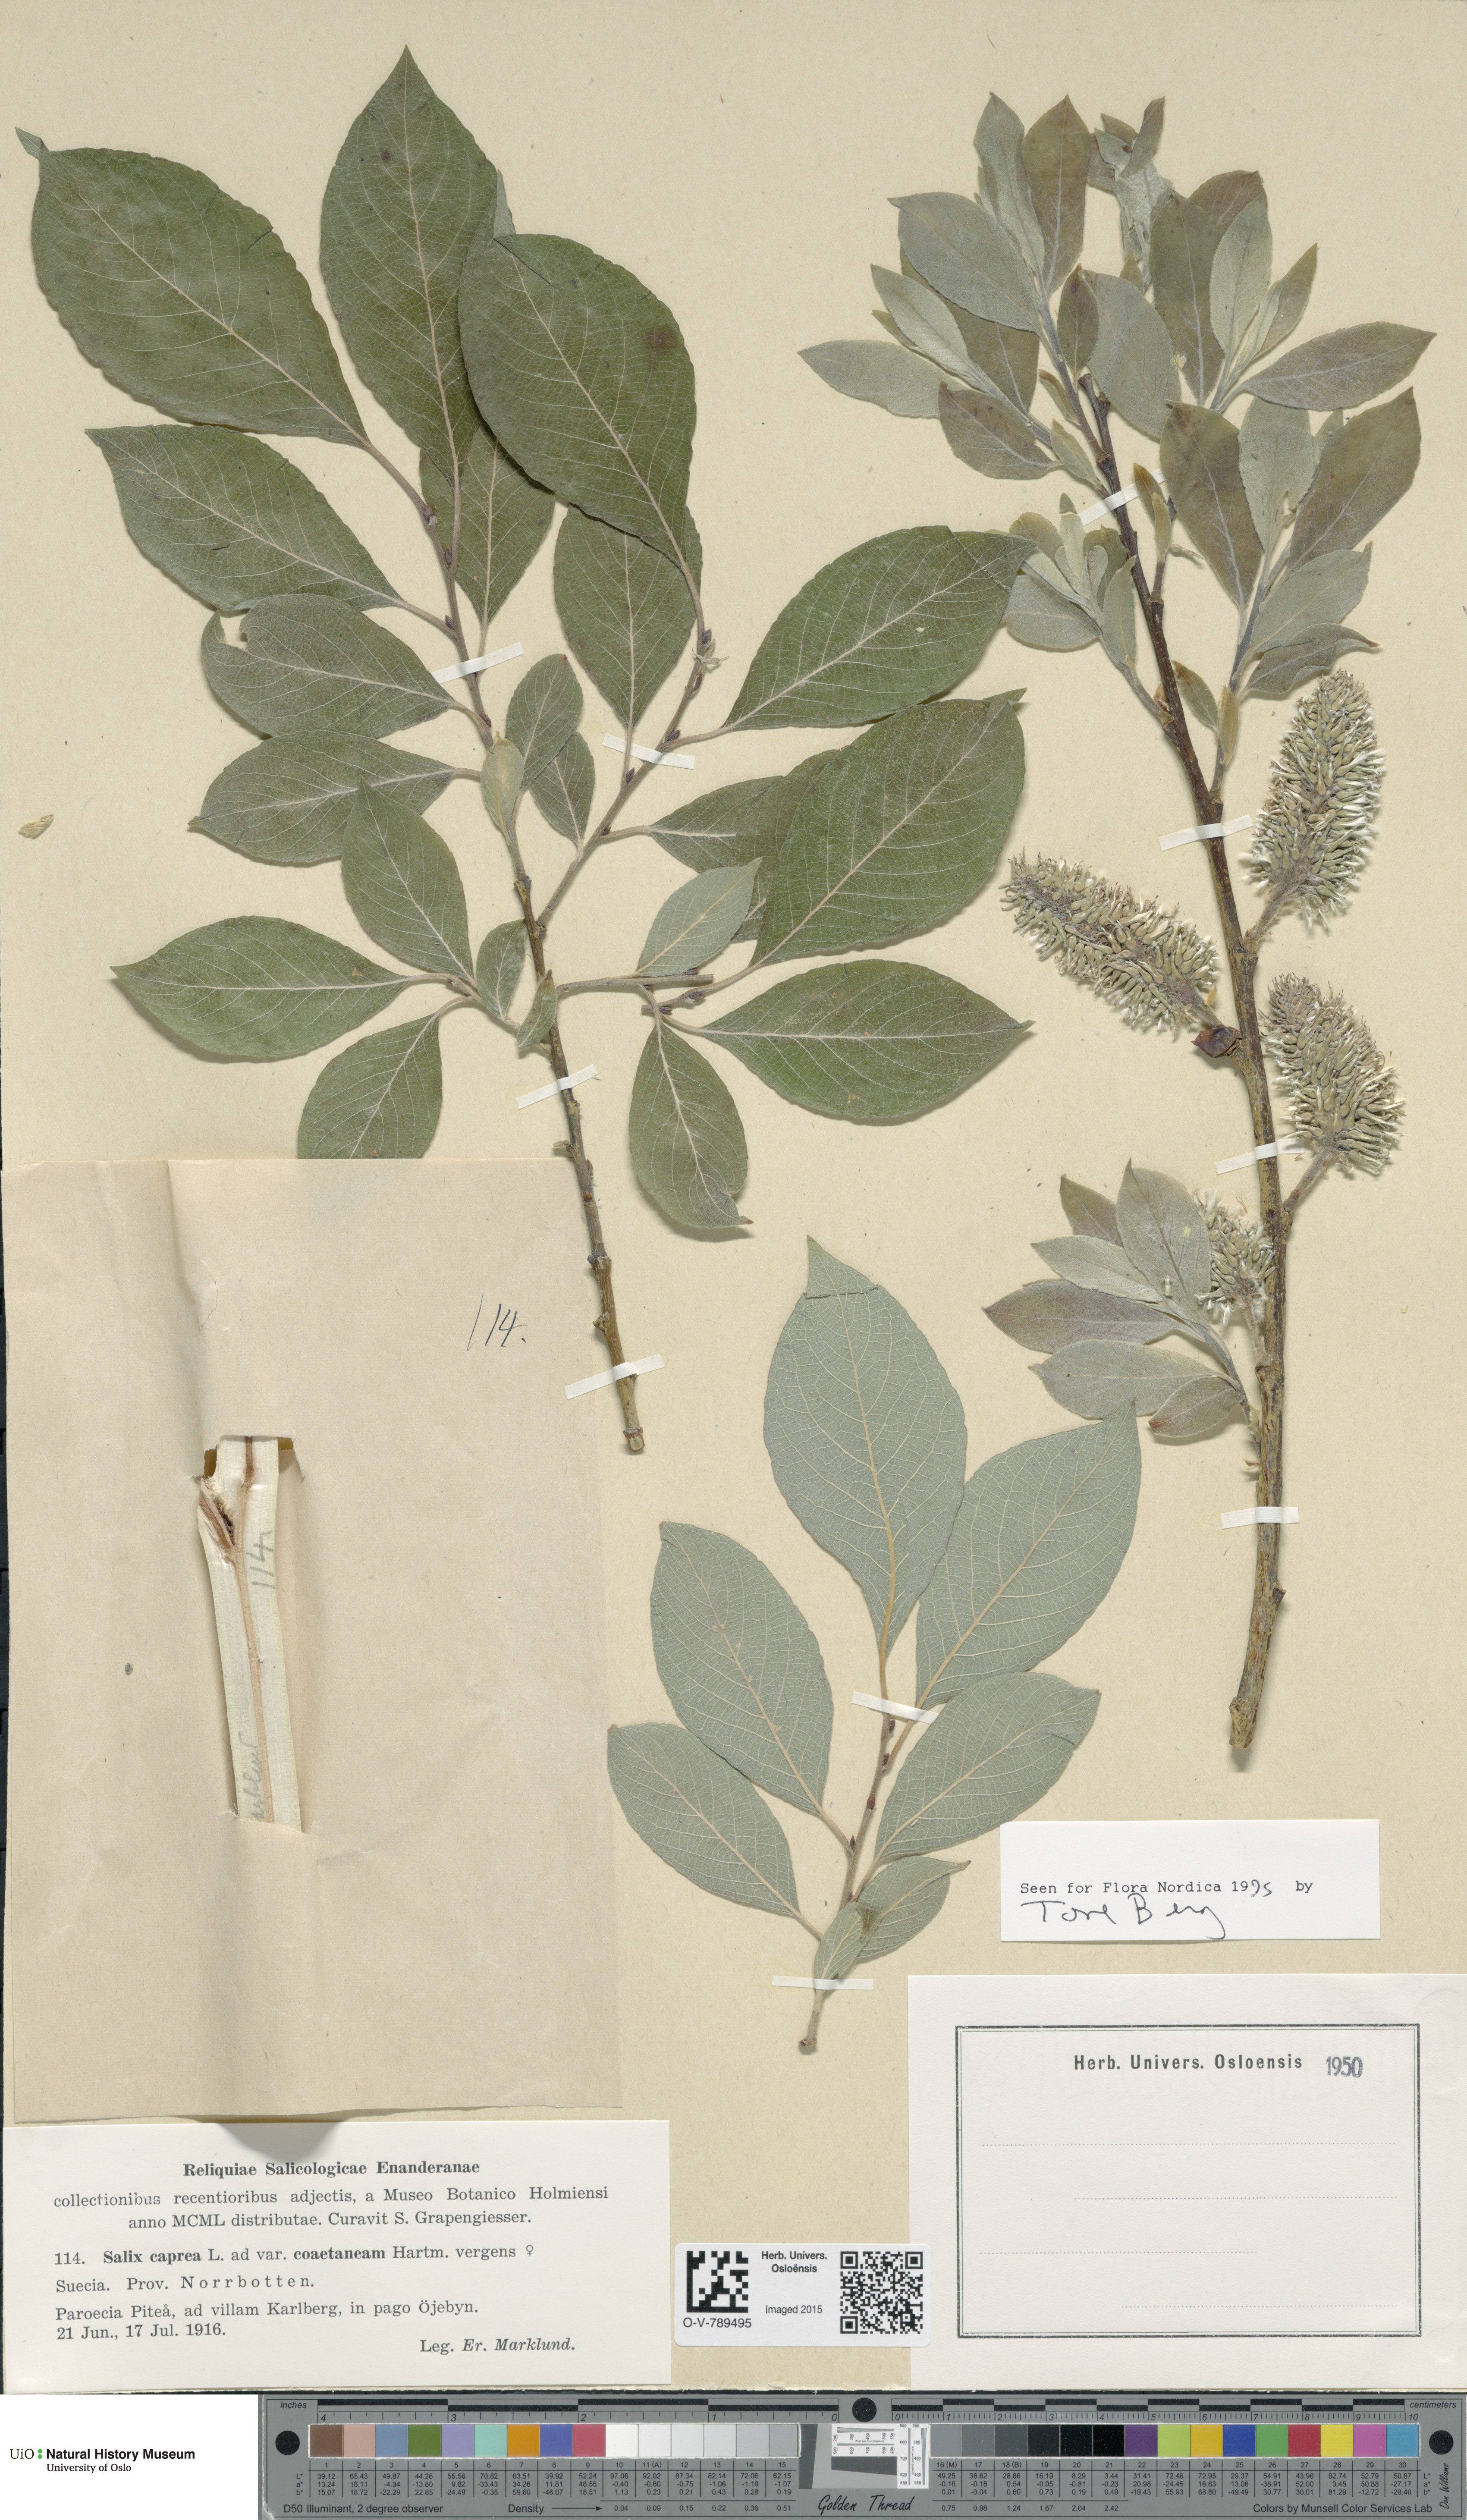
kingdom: Plantae
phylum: Tracheophyta
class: Magnoliopsida
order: Malpighiales
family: Salicaceae
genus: Salix
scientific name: Salix caprea
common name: Goat willow
